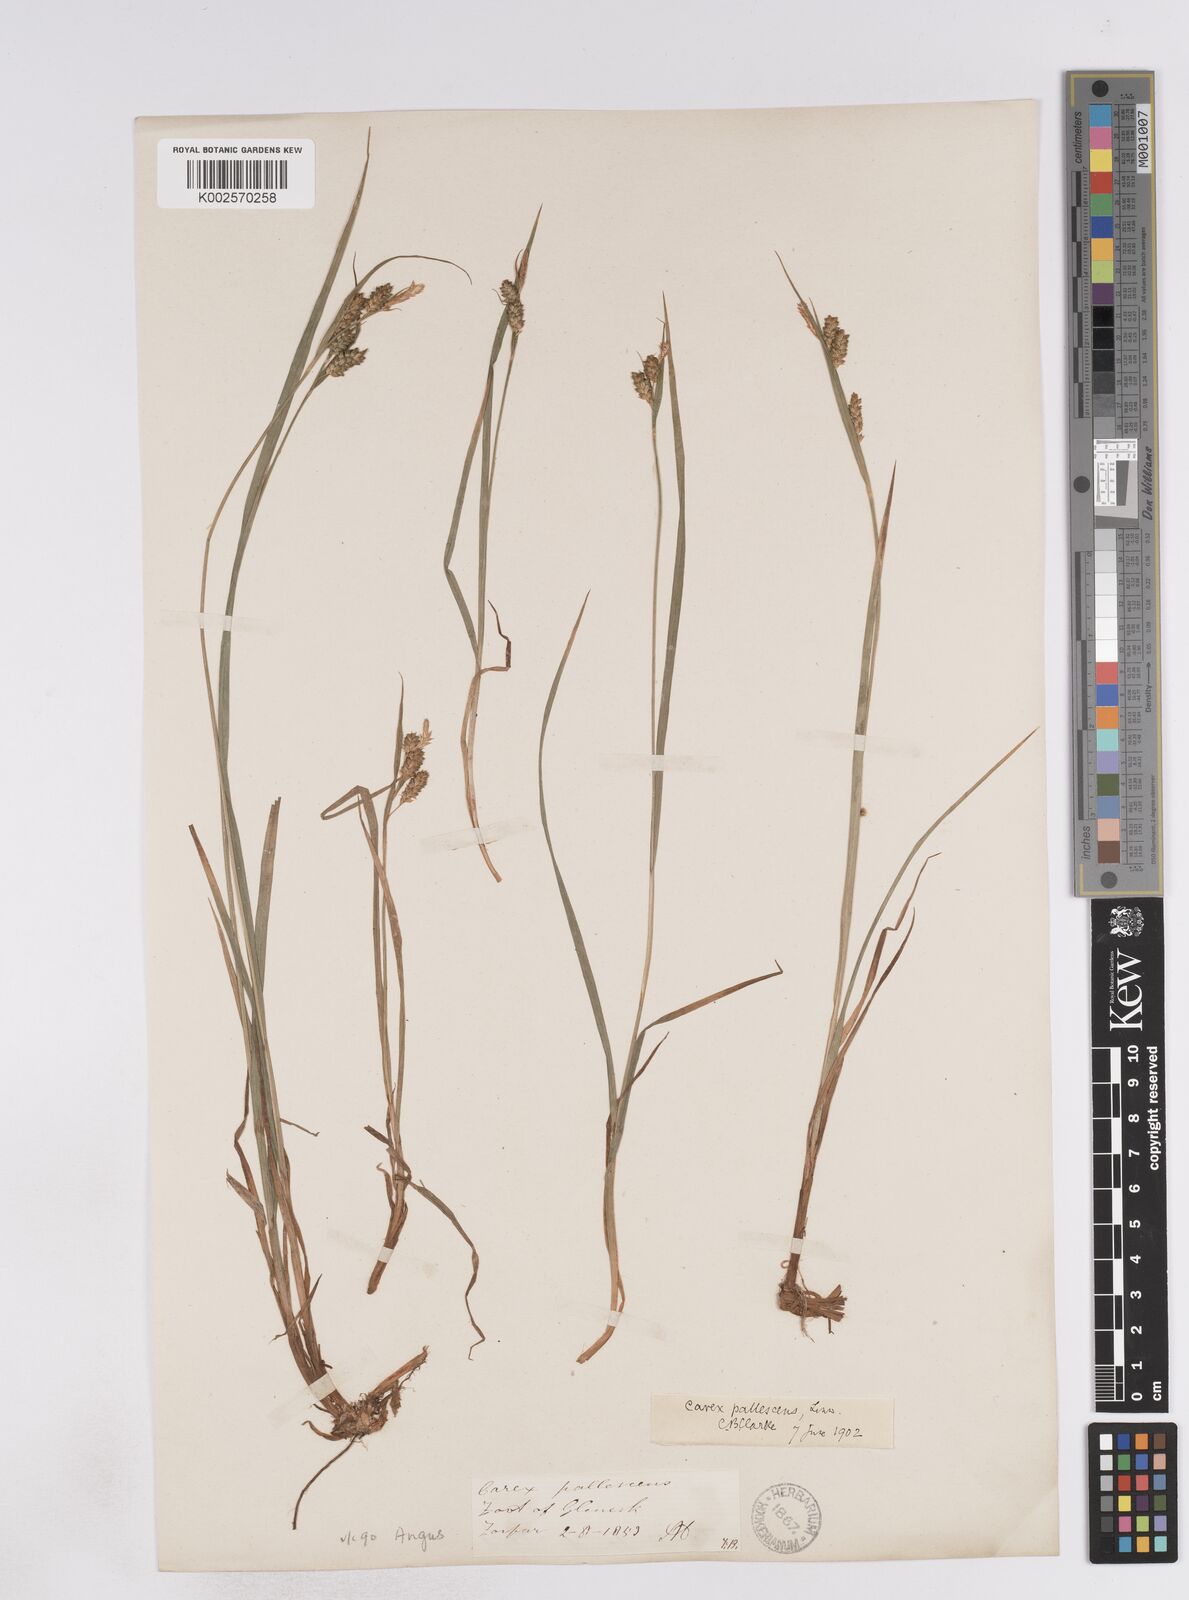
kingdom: Plantae
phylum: Tracheophyta
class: Liliopsida
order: Poales
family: Cyperaceae
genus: Carex
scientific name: Carex pallescens
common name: Pale sedge
